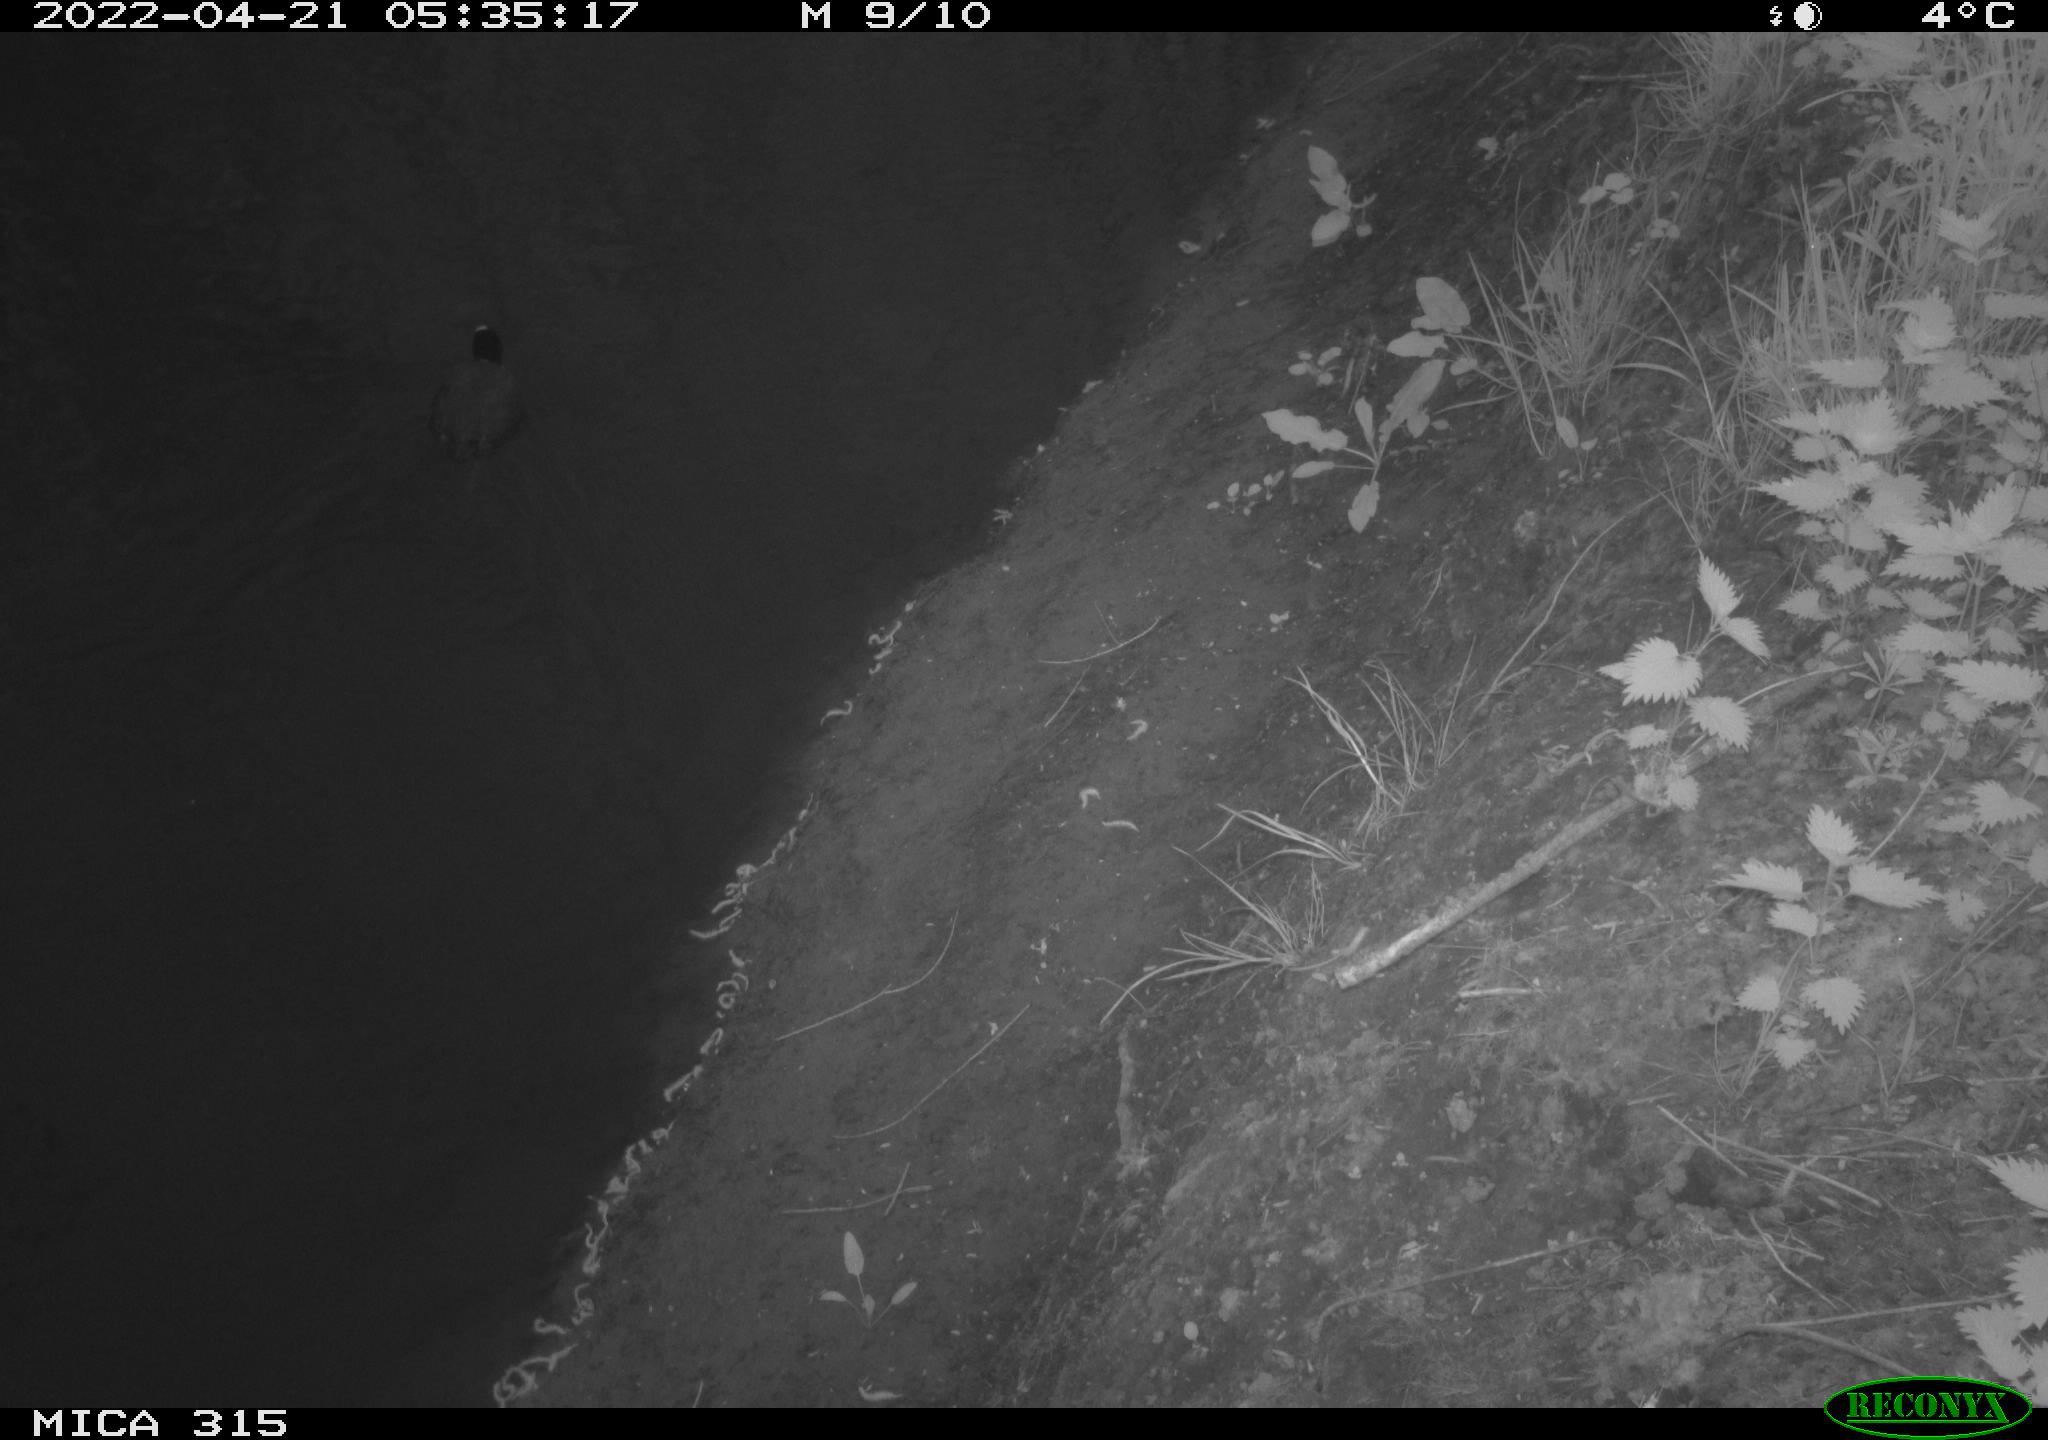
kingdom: Animalia
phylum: Chordata
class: Aves
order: Gruiformes
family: Rallidae
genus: Fulica
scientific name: Fulica atra
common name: Eurasian coot
